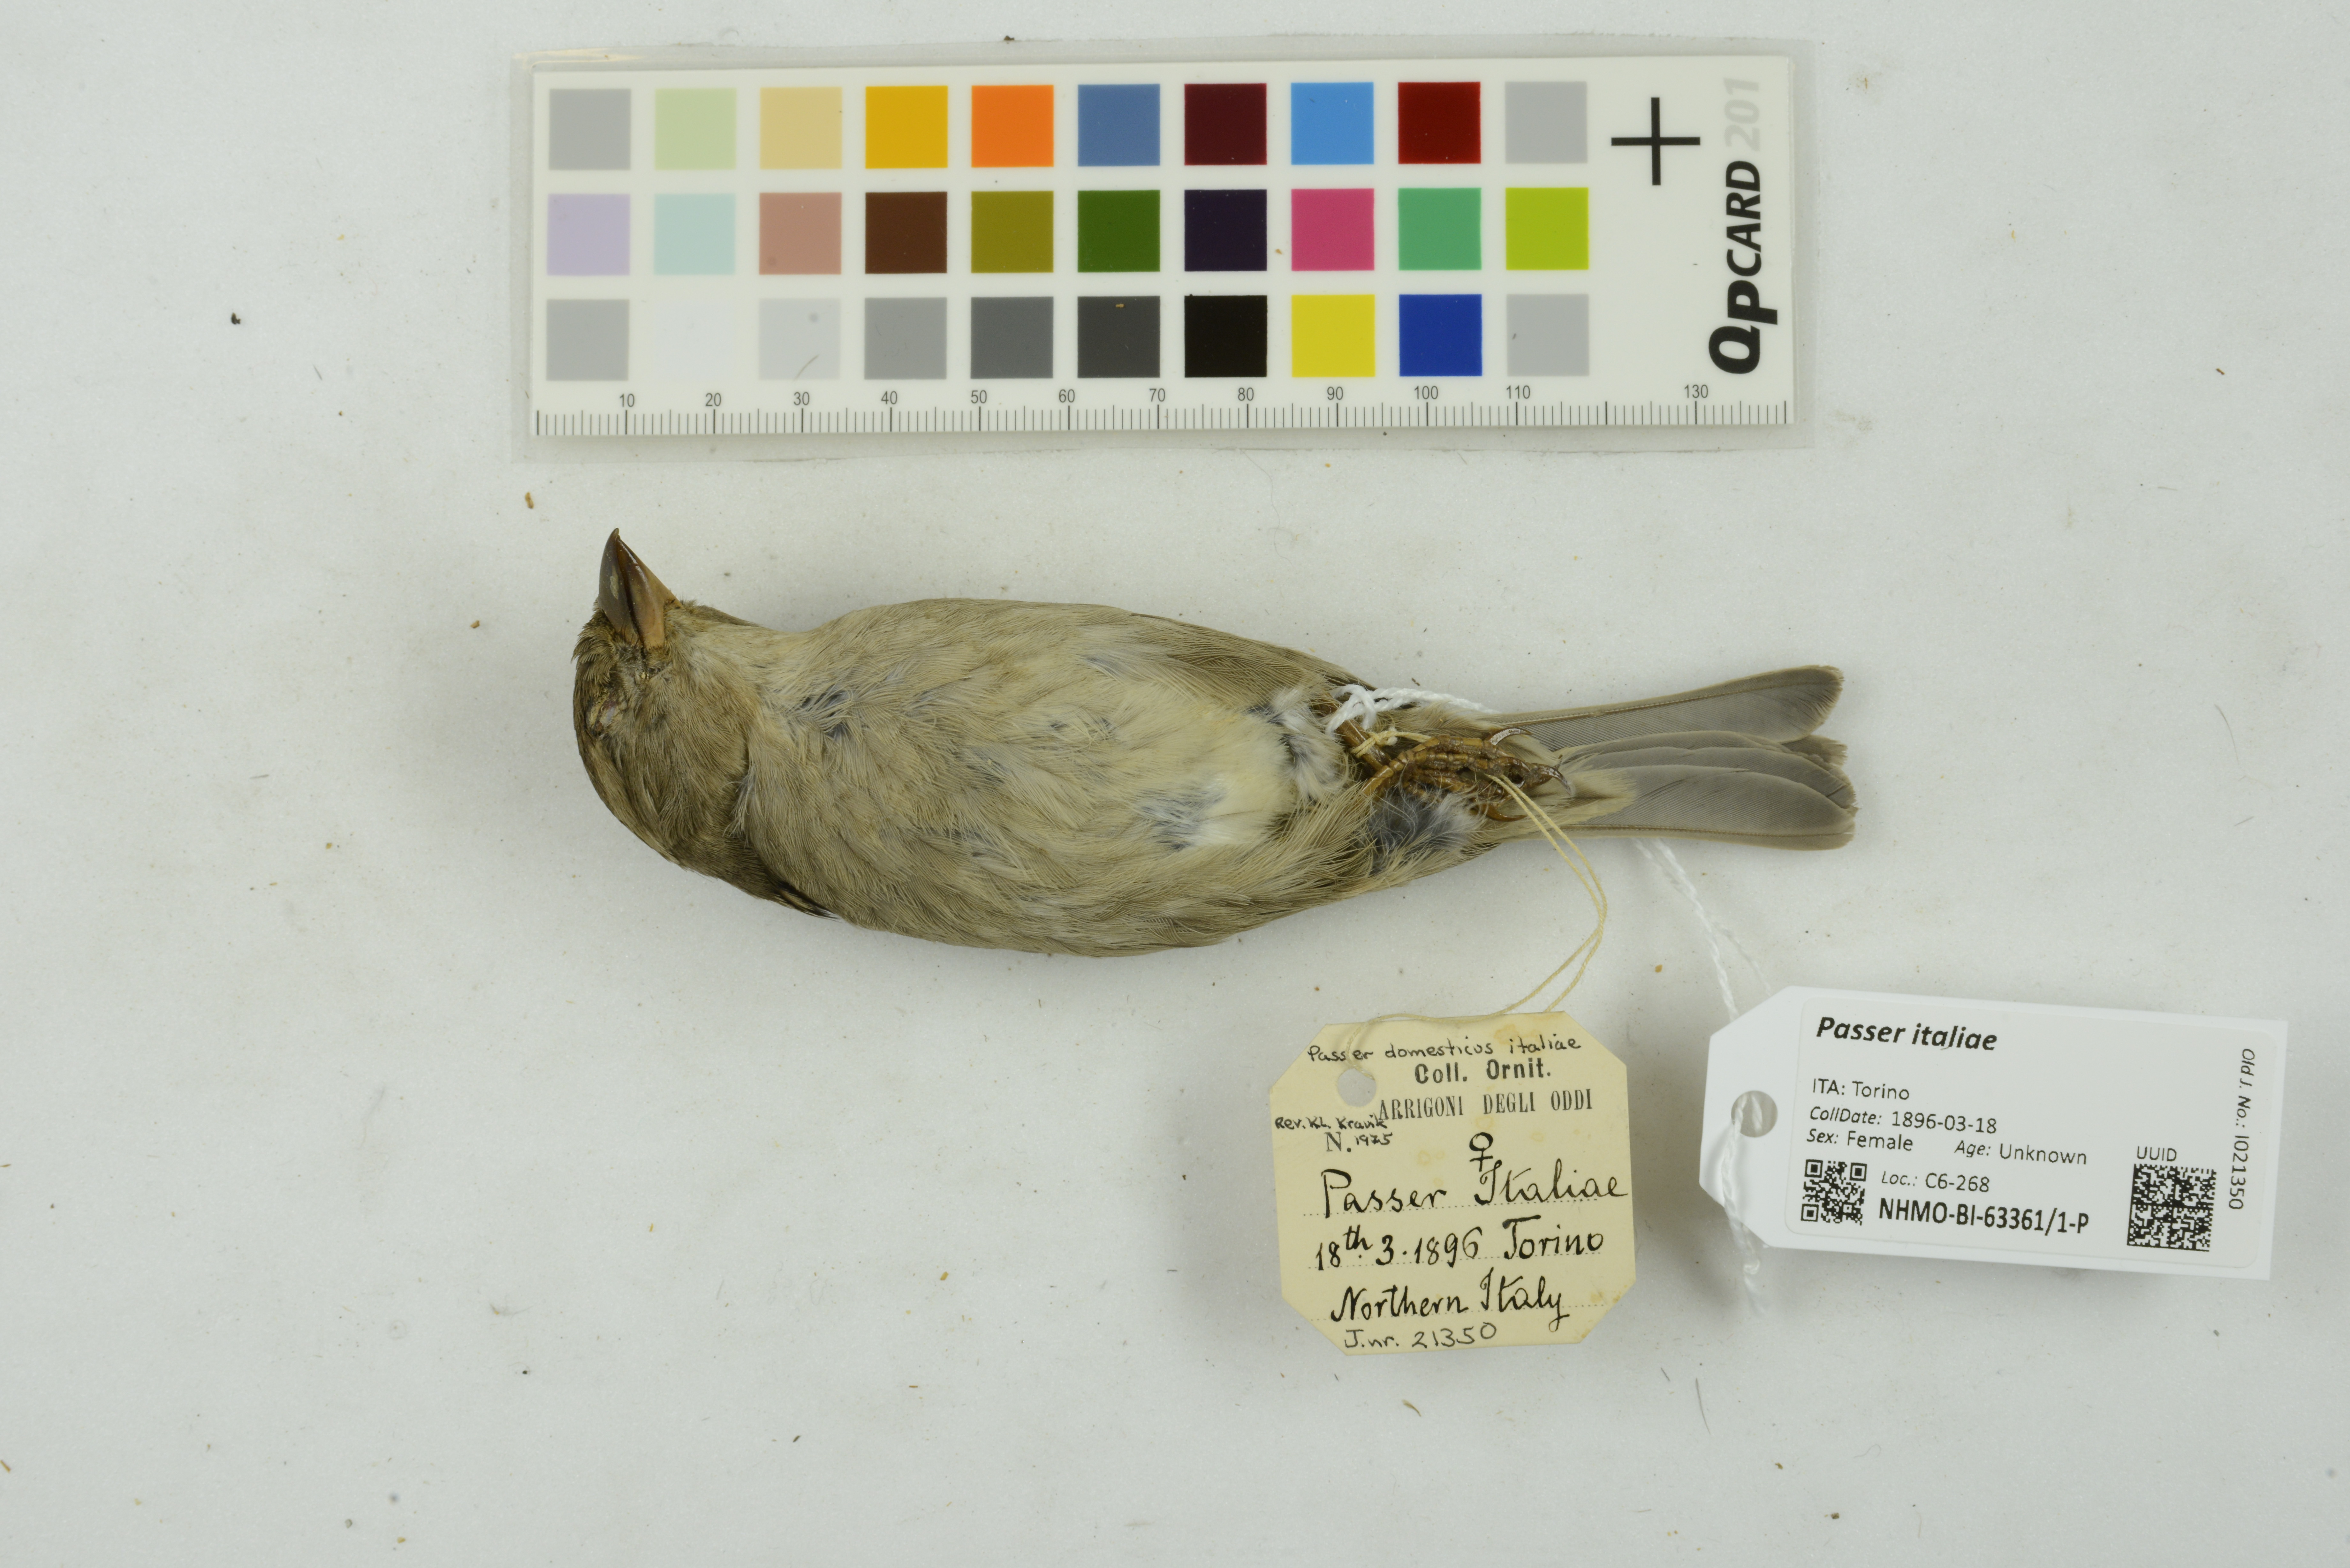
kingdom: Animalia
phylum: Chordata
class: Aves
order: Passeriformes
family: Passeridae
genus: Passer
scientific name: Passer italiae
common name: Italian sparrow
